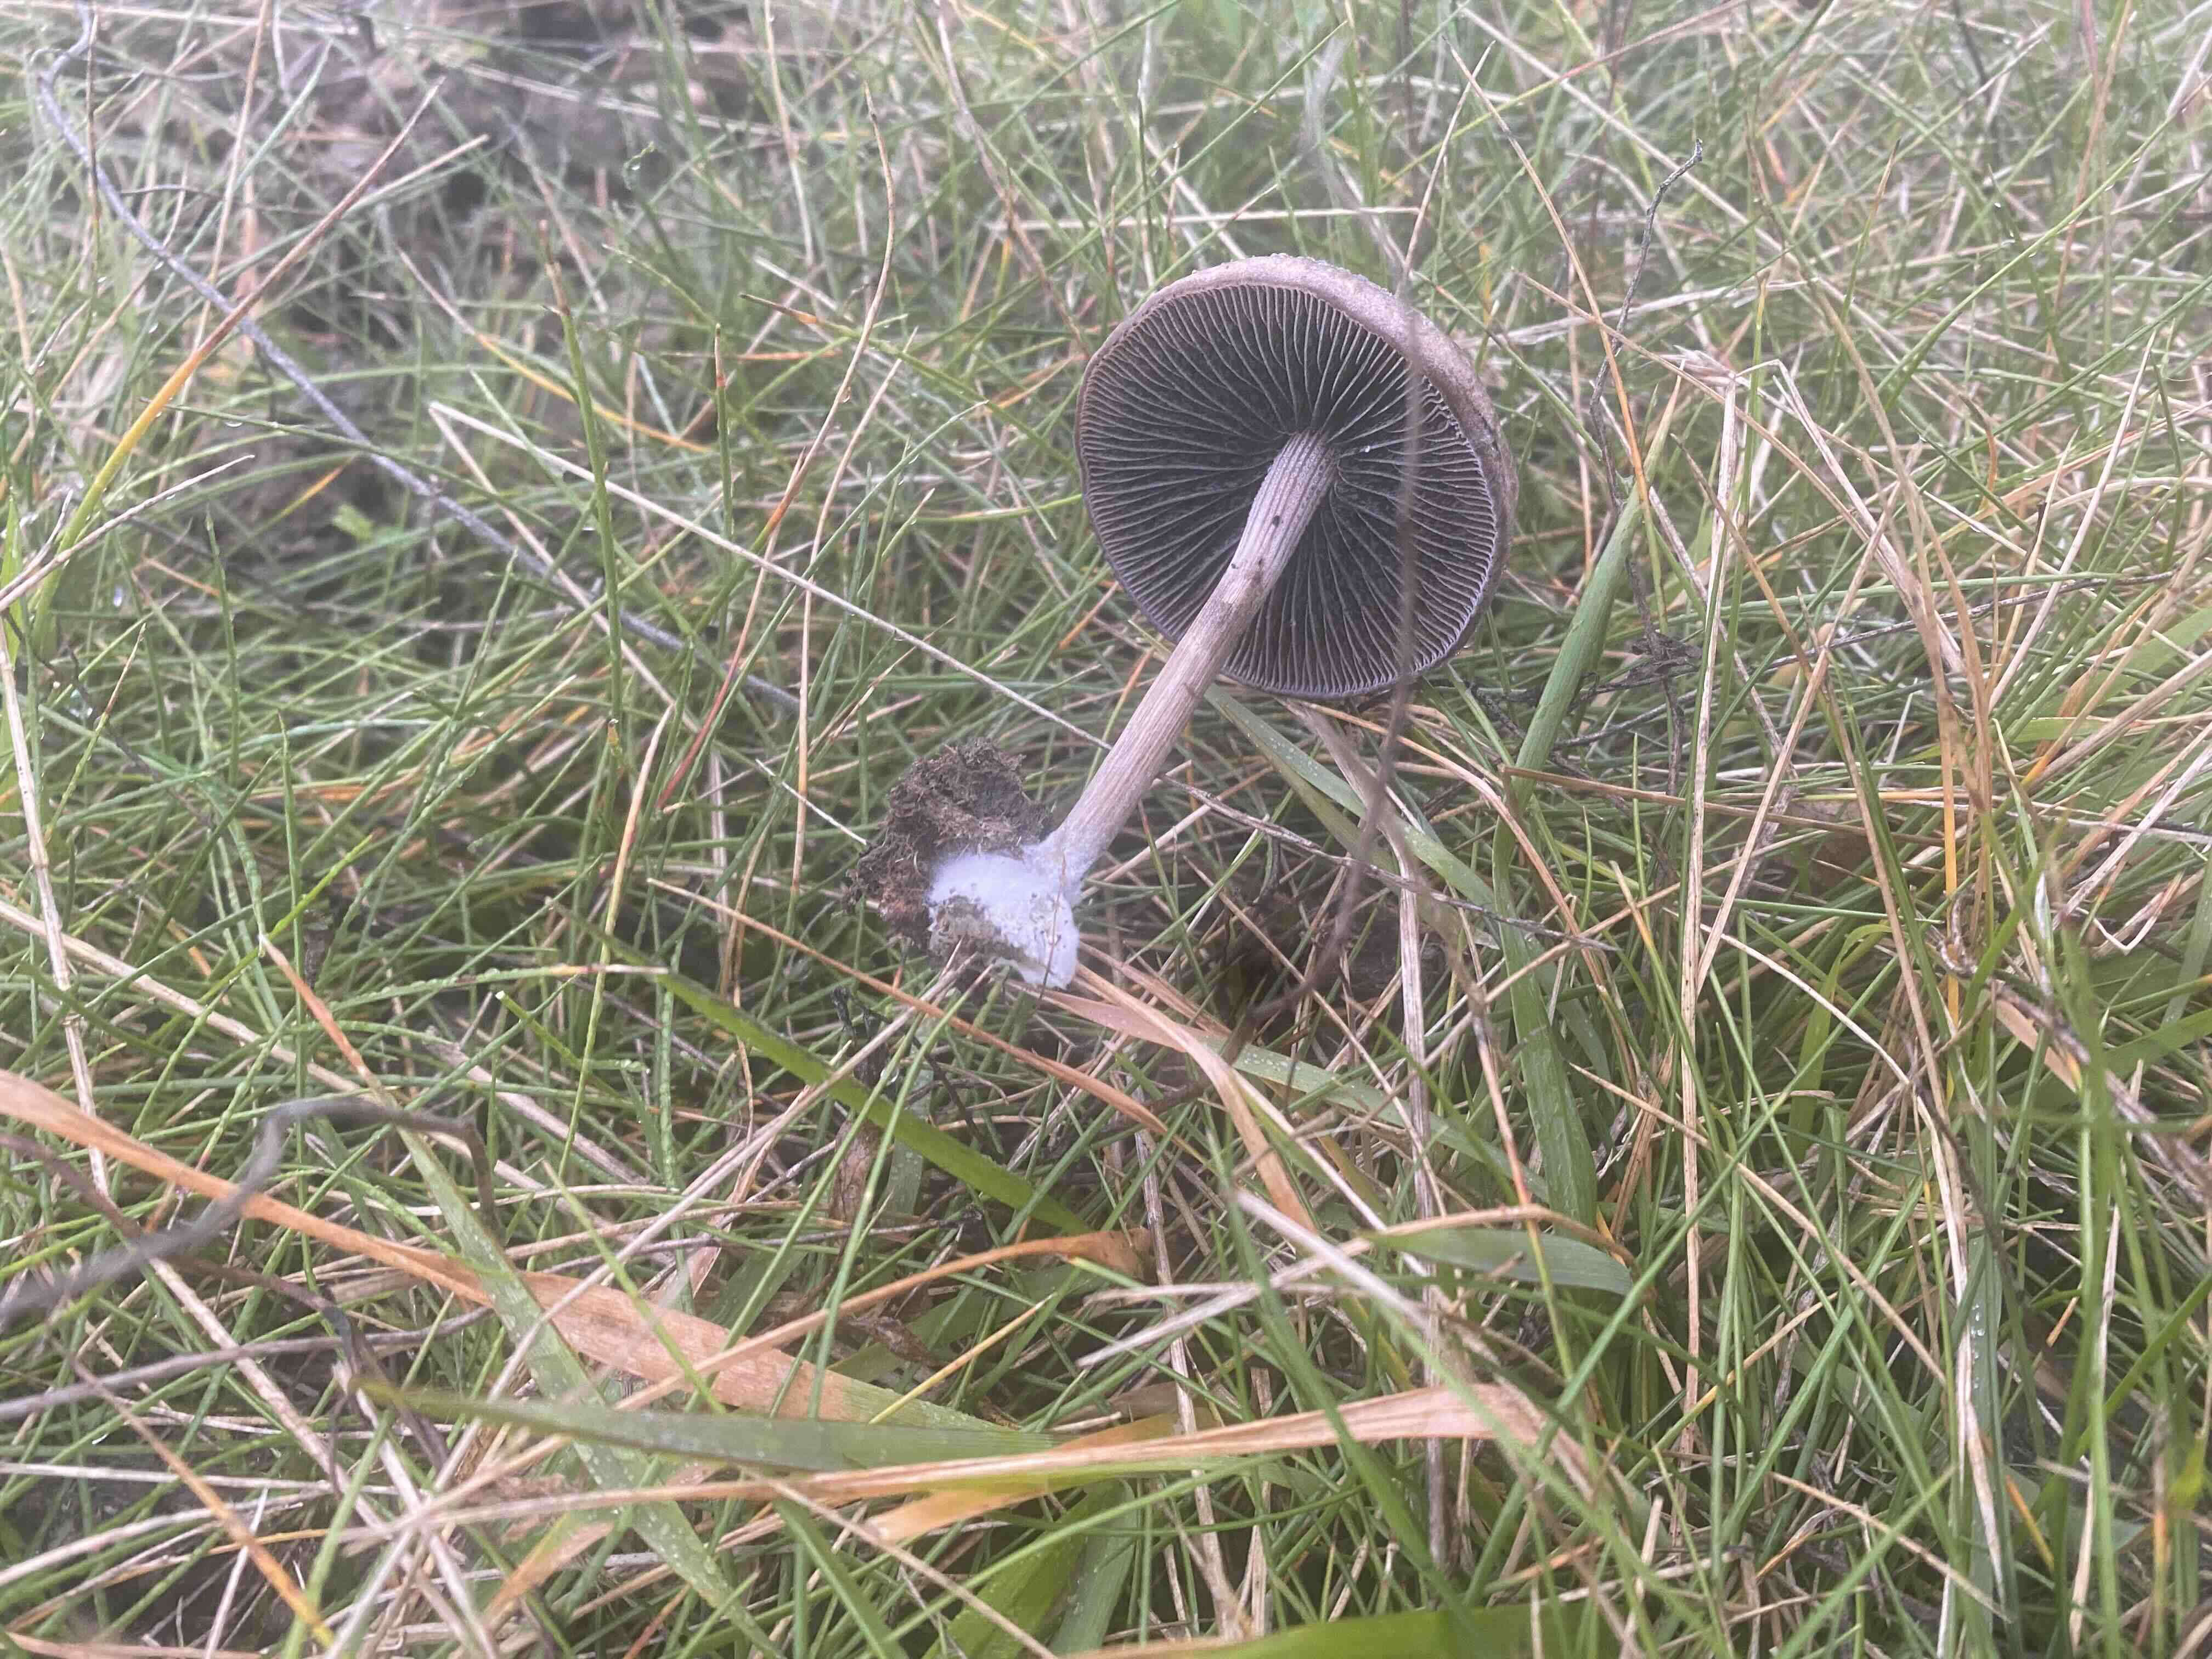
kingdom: Fungi
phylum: Basidiomycota
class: Agaricomycetes
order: Agaricales
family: Bolbitiaceae
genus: Panaeolus
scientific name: Panaeolus
